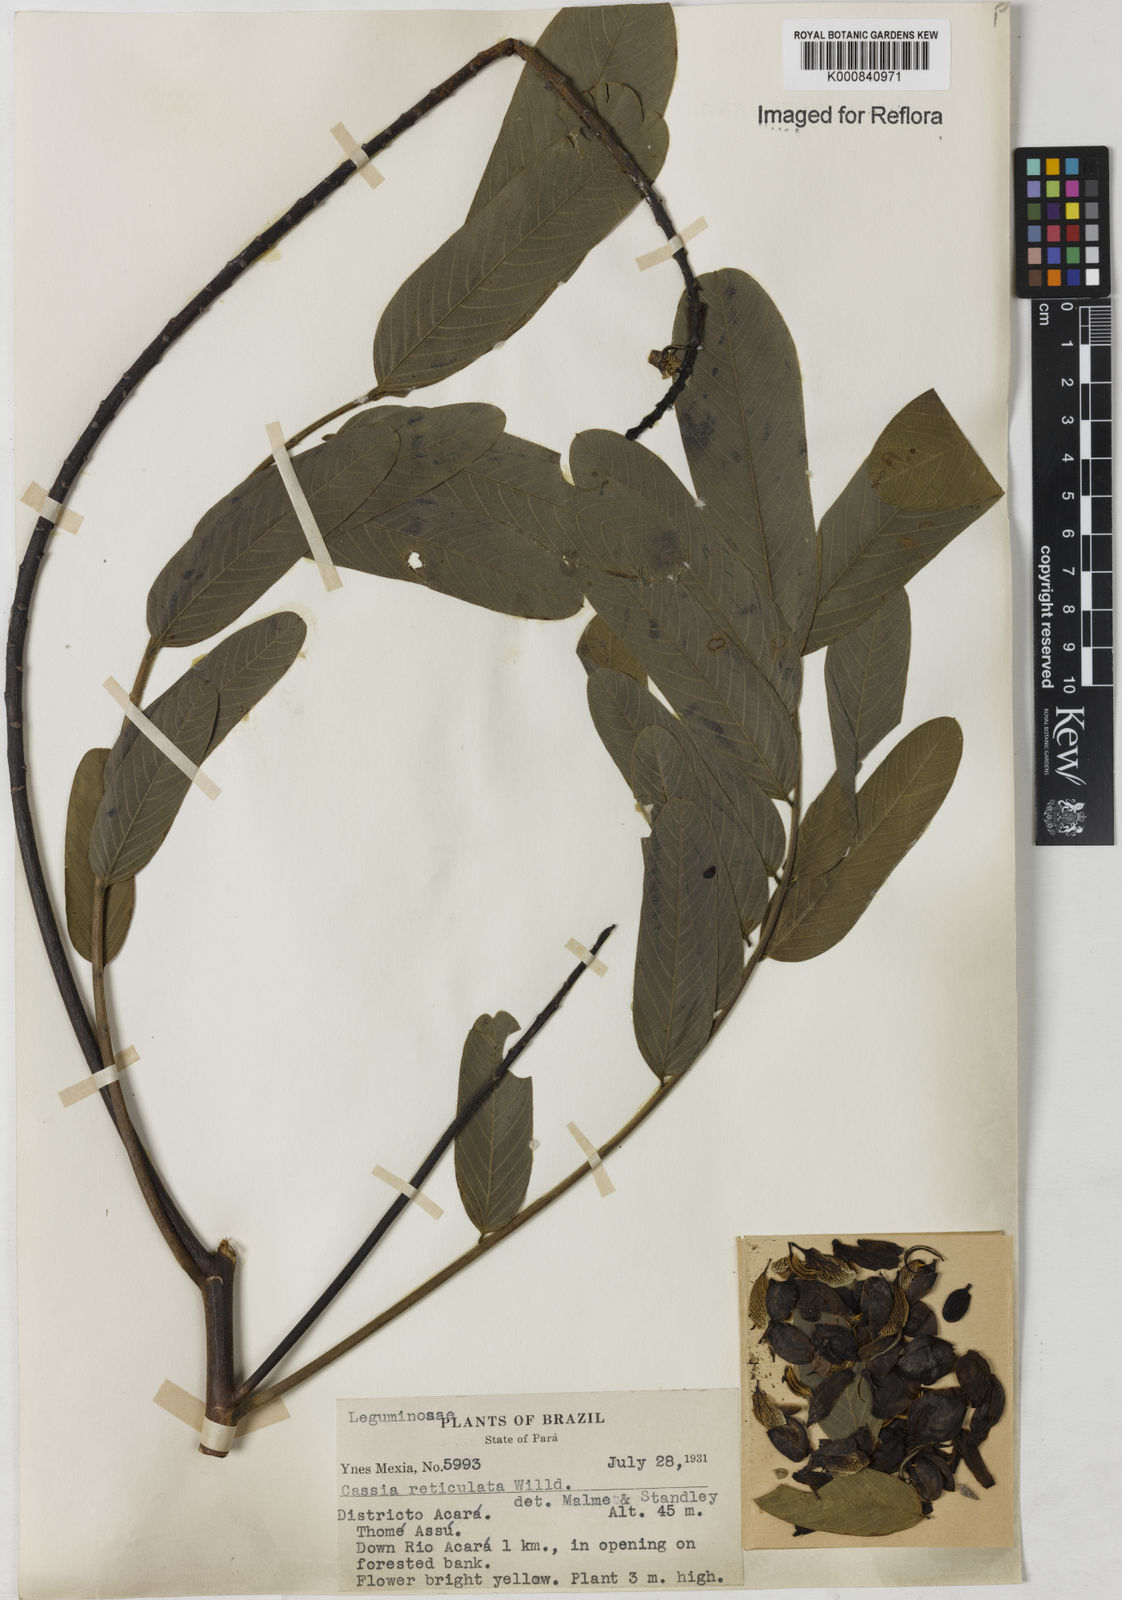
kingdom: Plantae
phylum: Tracheophyta
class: Magnoliopsida
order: Fabales
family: Fabaceae
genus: Senna
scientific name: Senna reticulata
